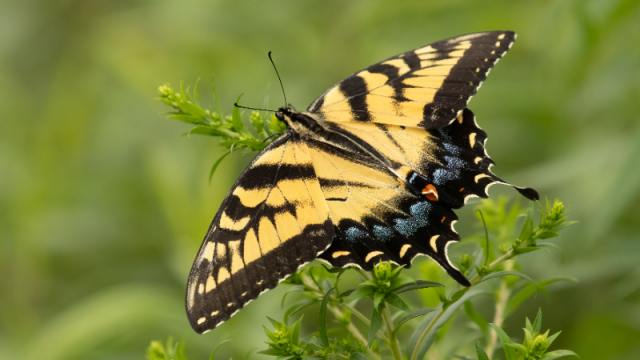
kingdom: Animalia
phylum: Arthropoda
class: Insecta
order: Lepidoptera
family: Papilionidae
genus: Pterourus
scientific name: Pterourus glaucus
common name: Eastern Tiger Swallowtail
